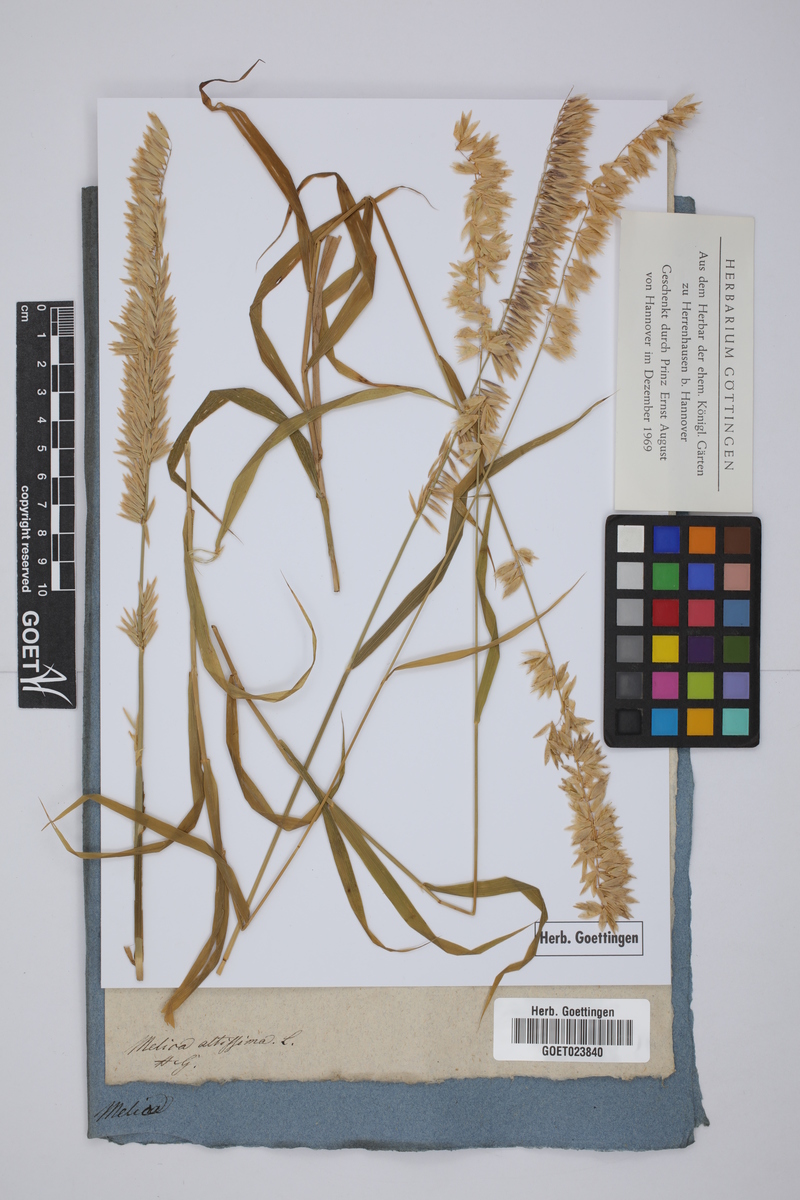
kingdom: Plantae
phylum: Tracheophyta
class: Liliopsida
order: Poales
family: Poaceae
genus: Melica
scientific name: Melica altissima
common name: Siberian melicgrass
